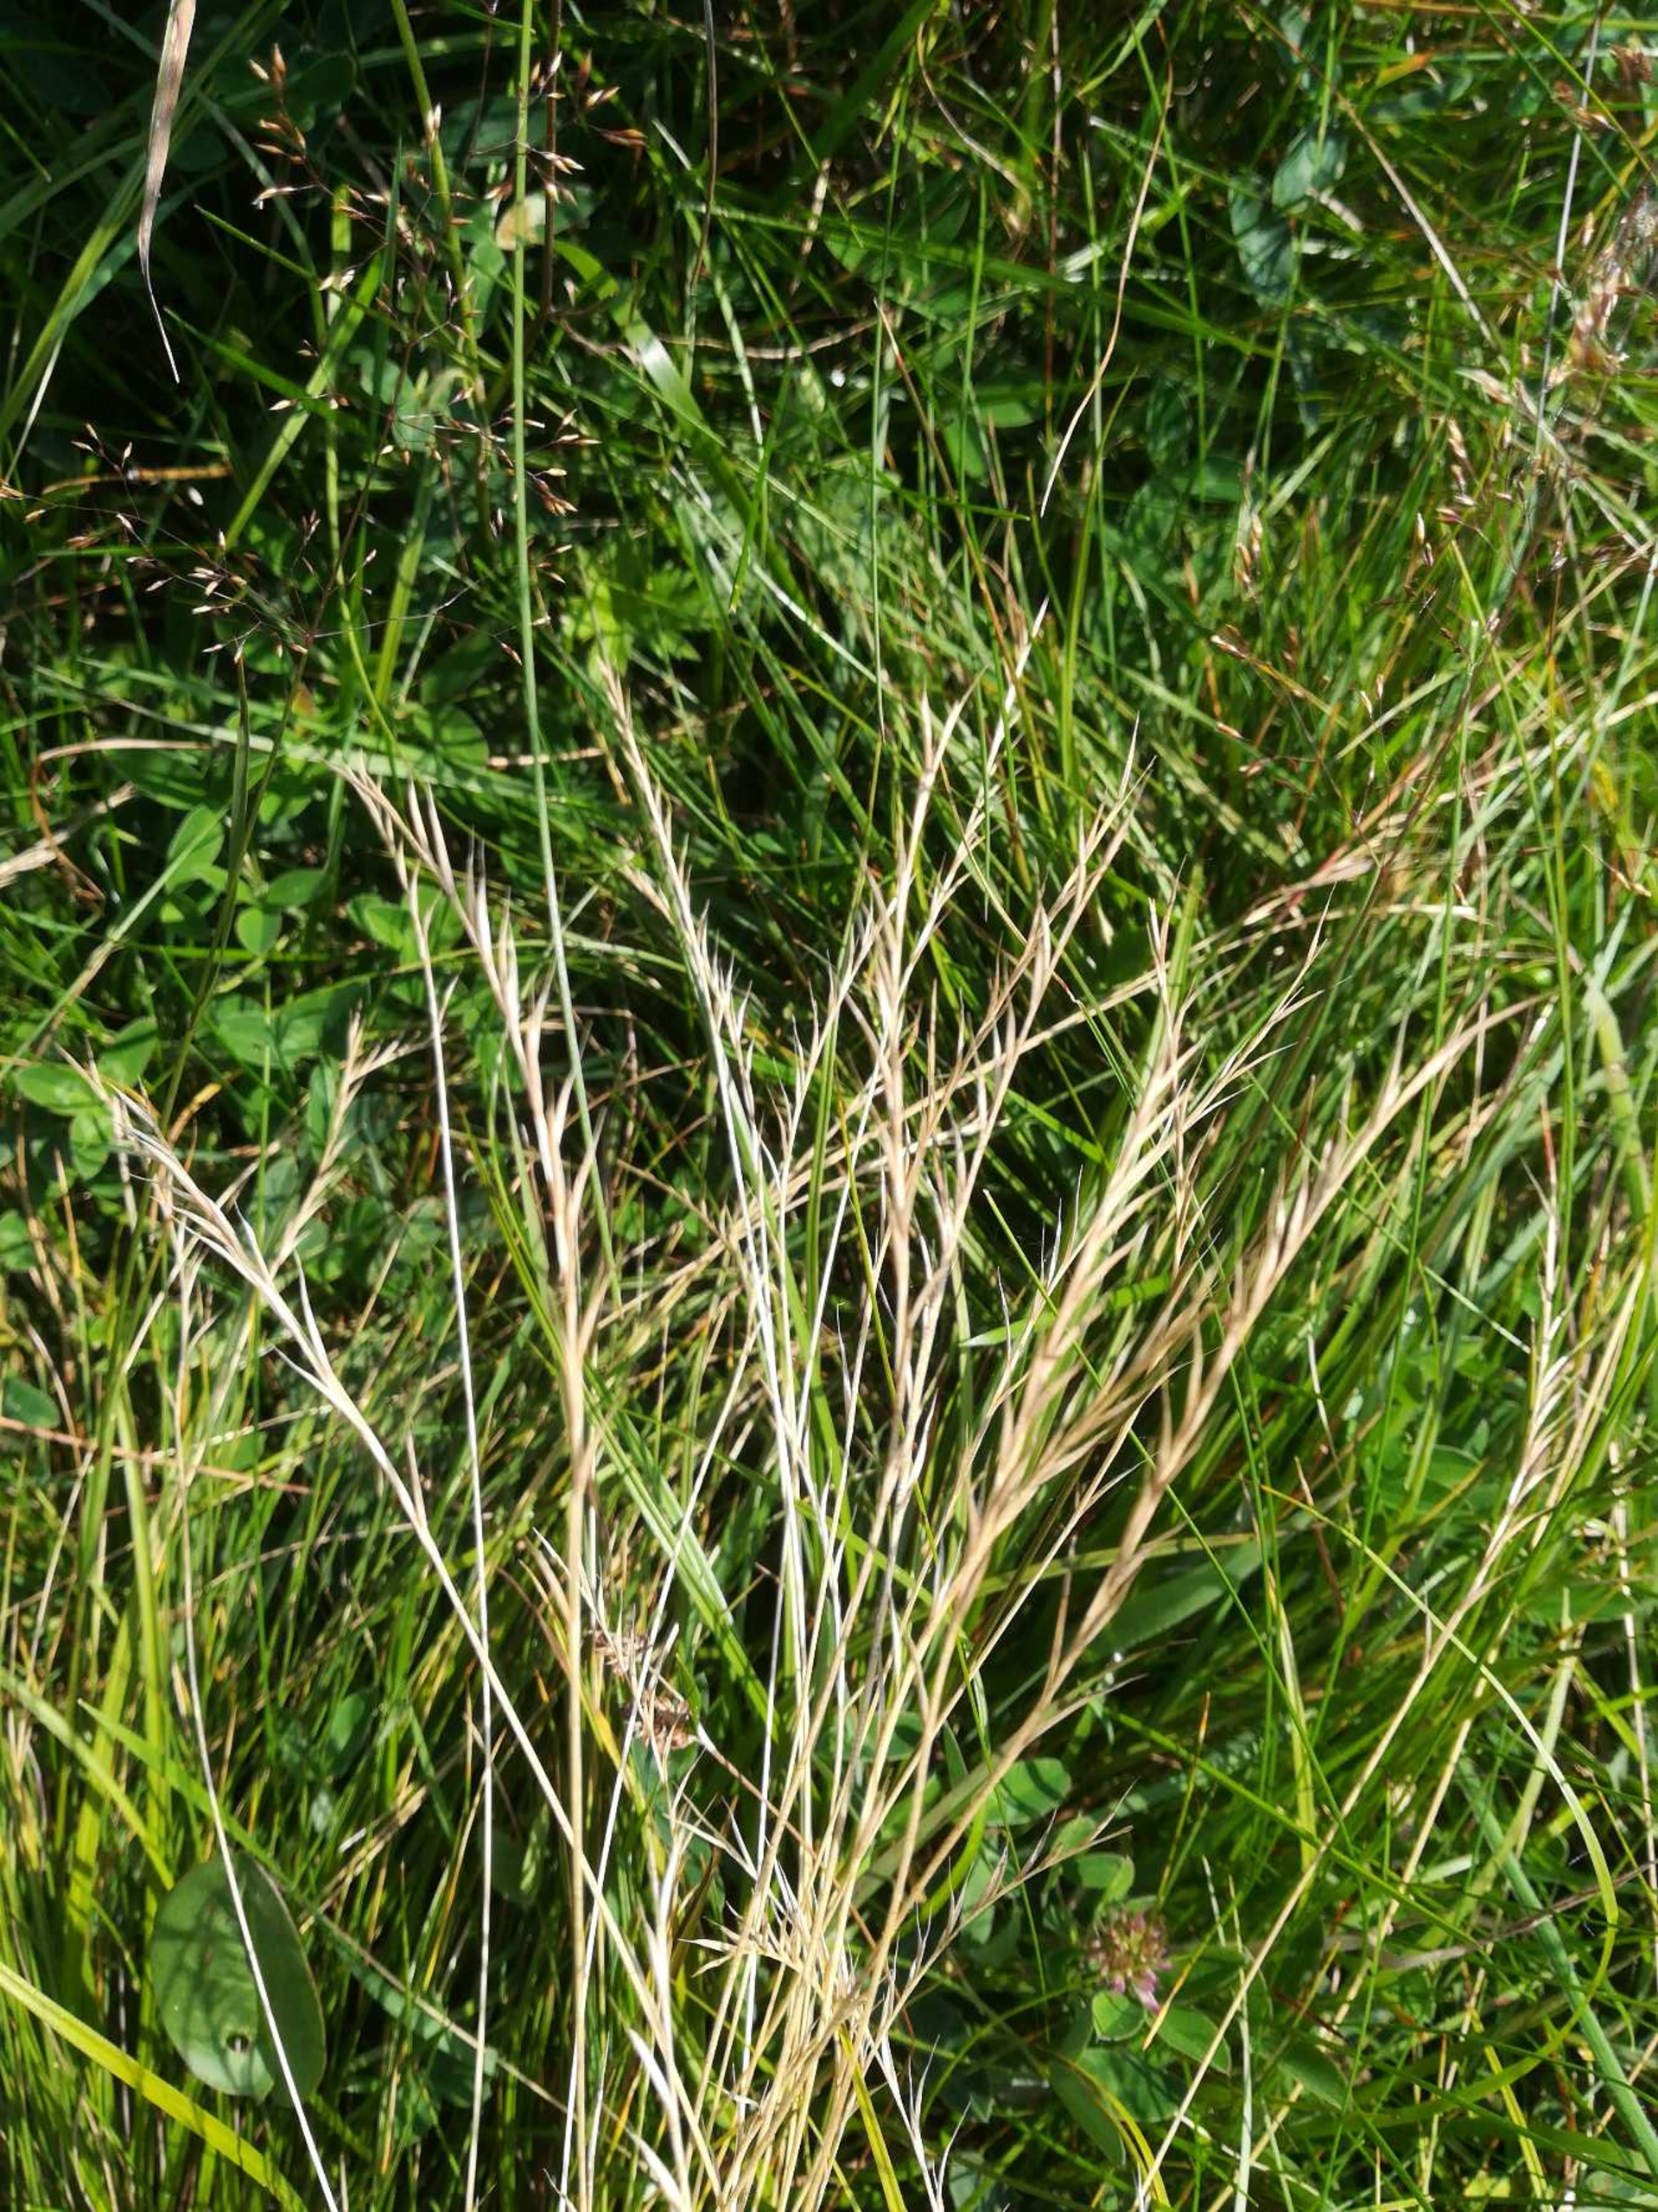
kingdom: Plantae
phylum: Tracheophyta
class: Liliopsida
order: Poales
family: Poaceae
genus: Nardus
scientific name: Nardus stricta
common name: Katteskæg
